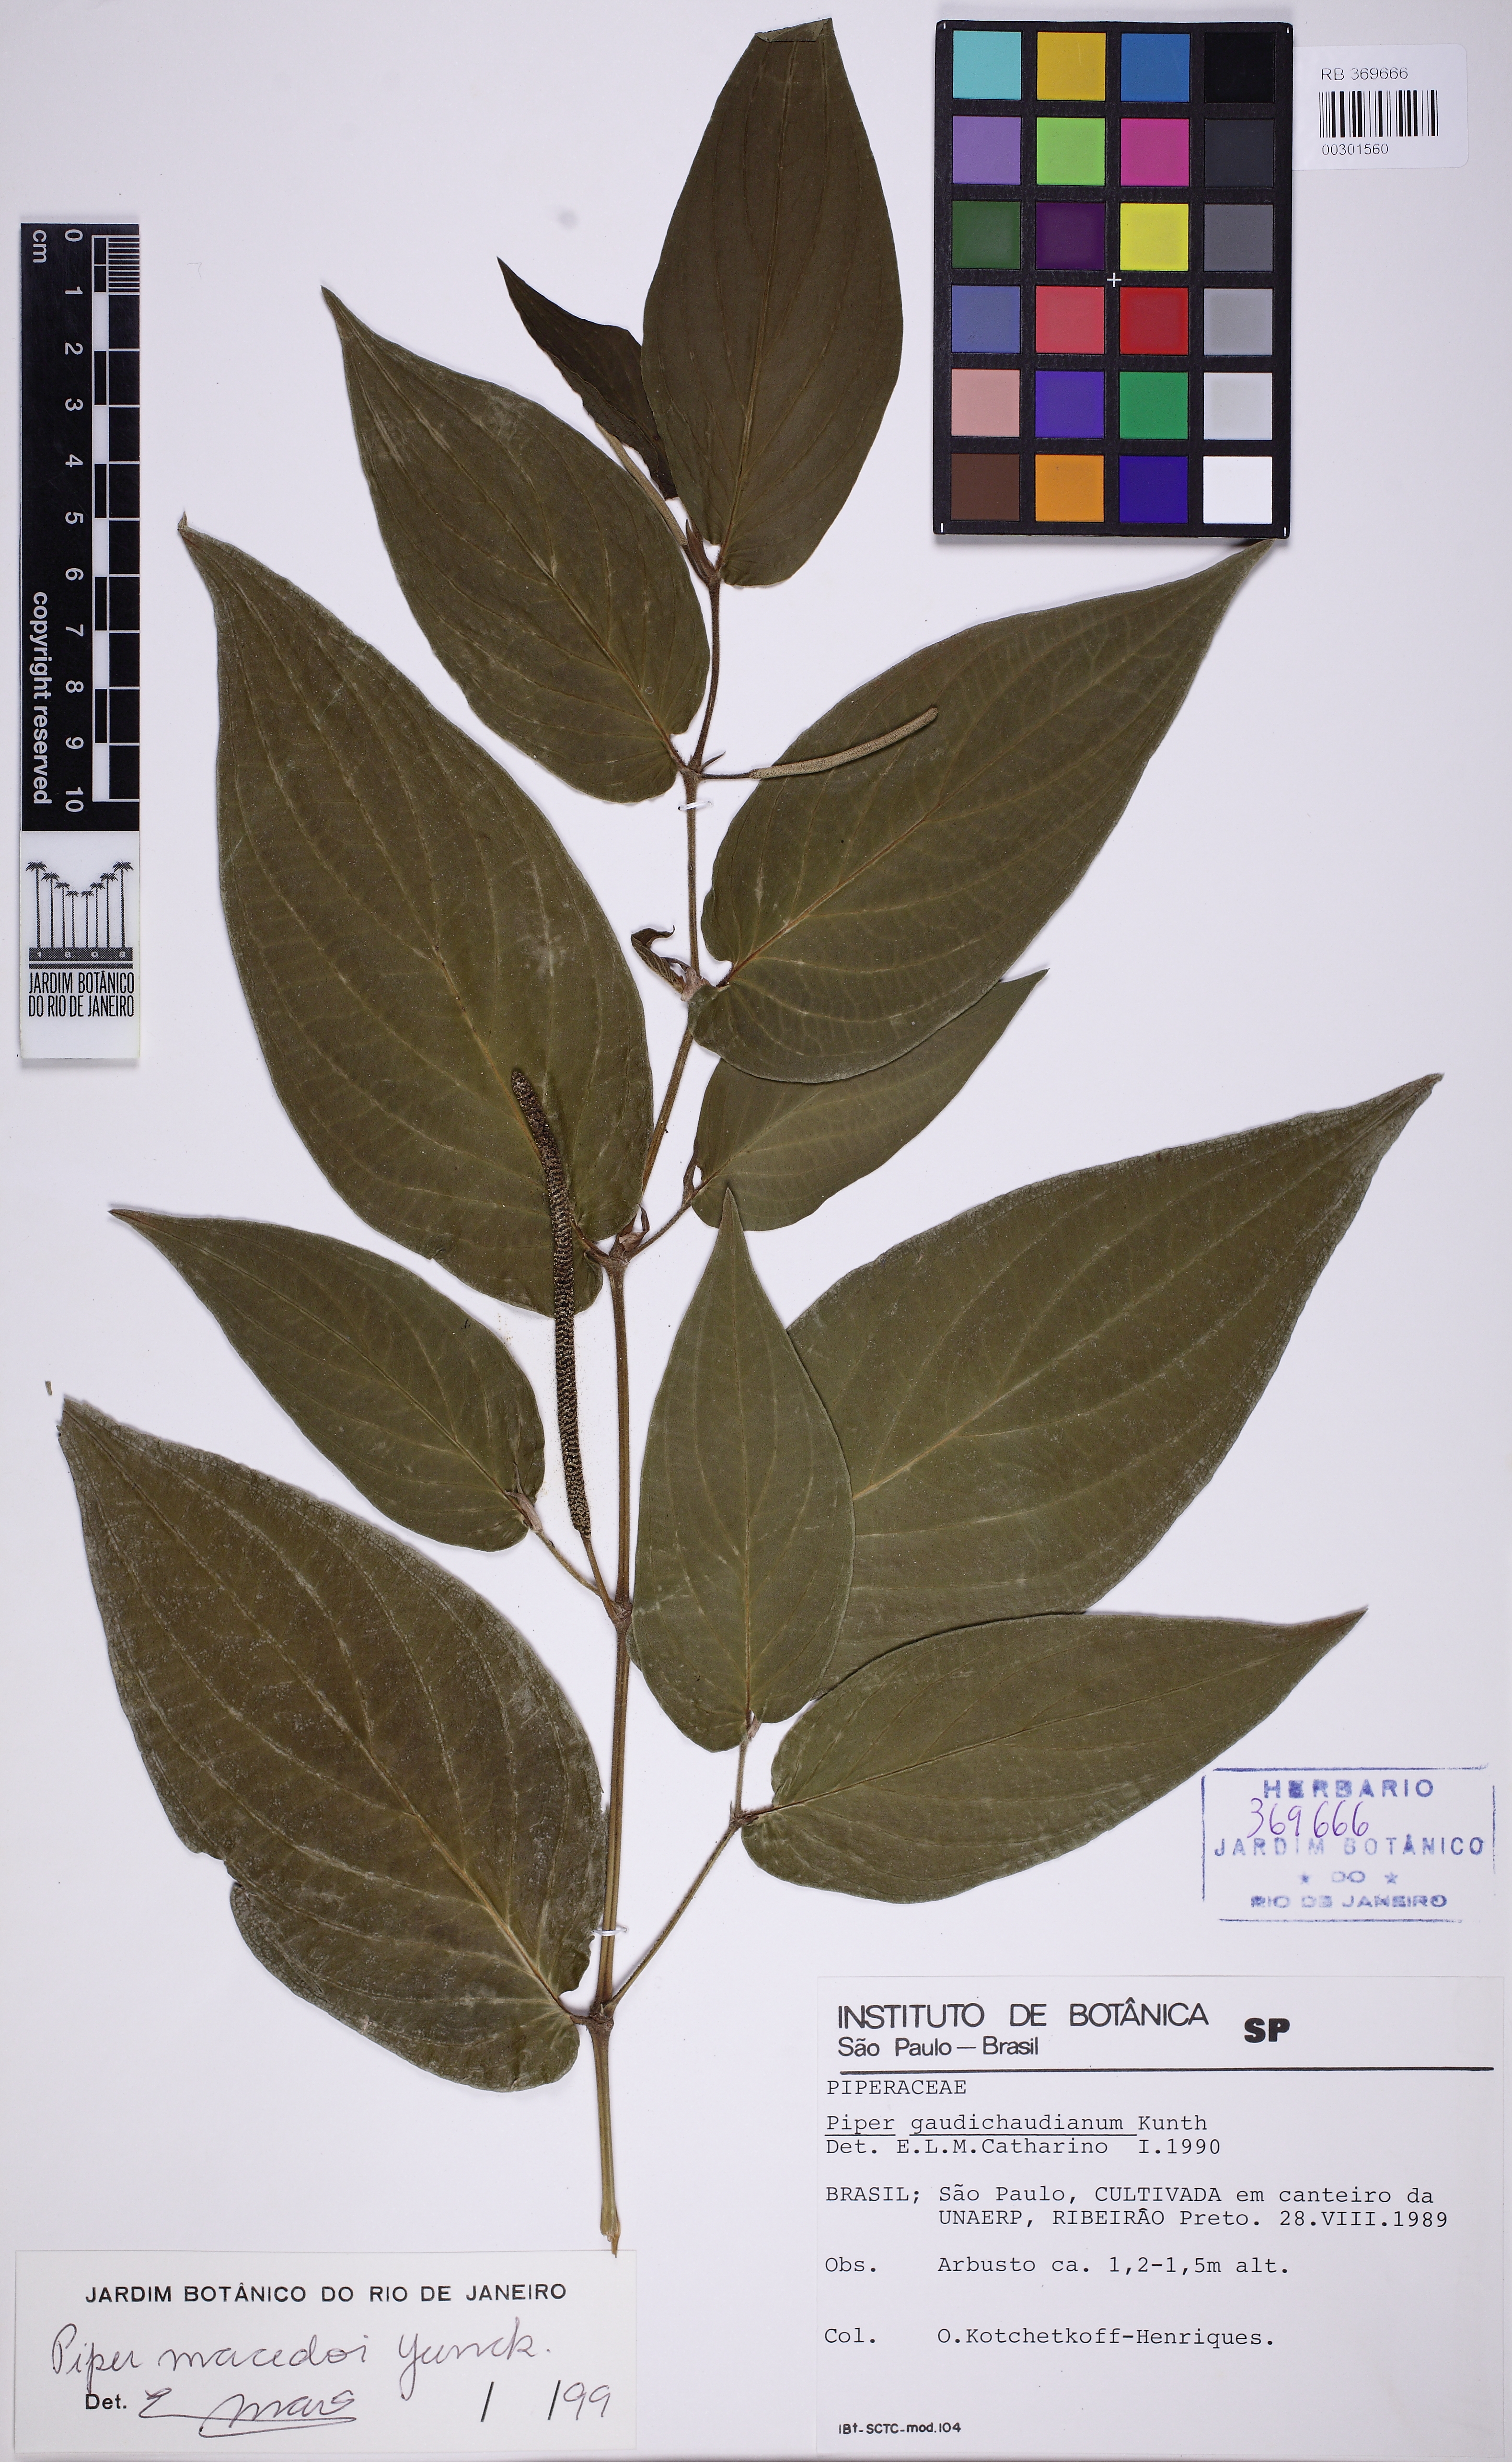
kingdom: Plantae
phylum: Tracheophyta
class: Magnoliopsida
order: Piperales
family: Piperaceae
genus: Piper
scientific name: Piper gaudichaudianum
